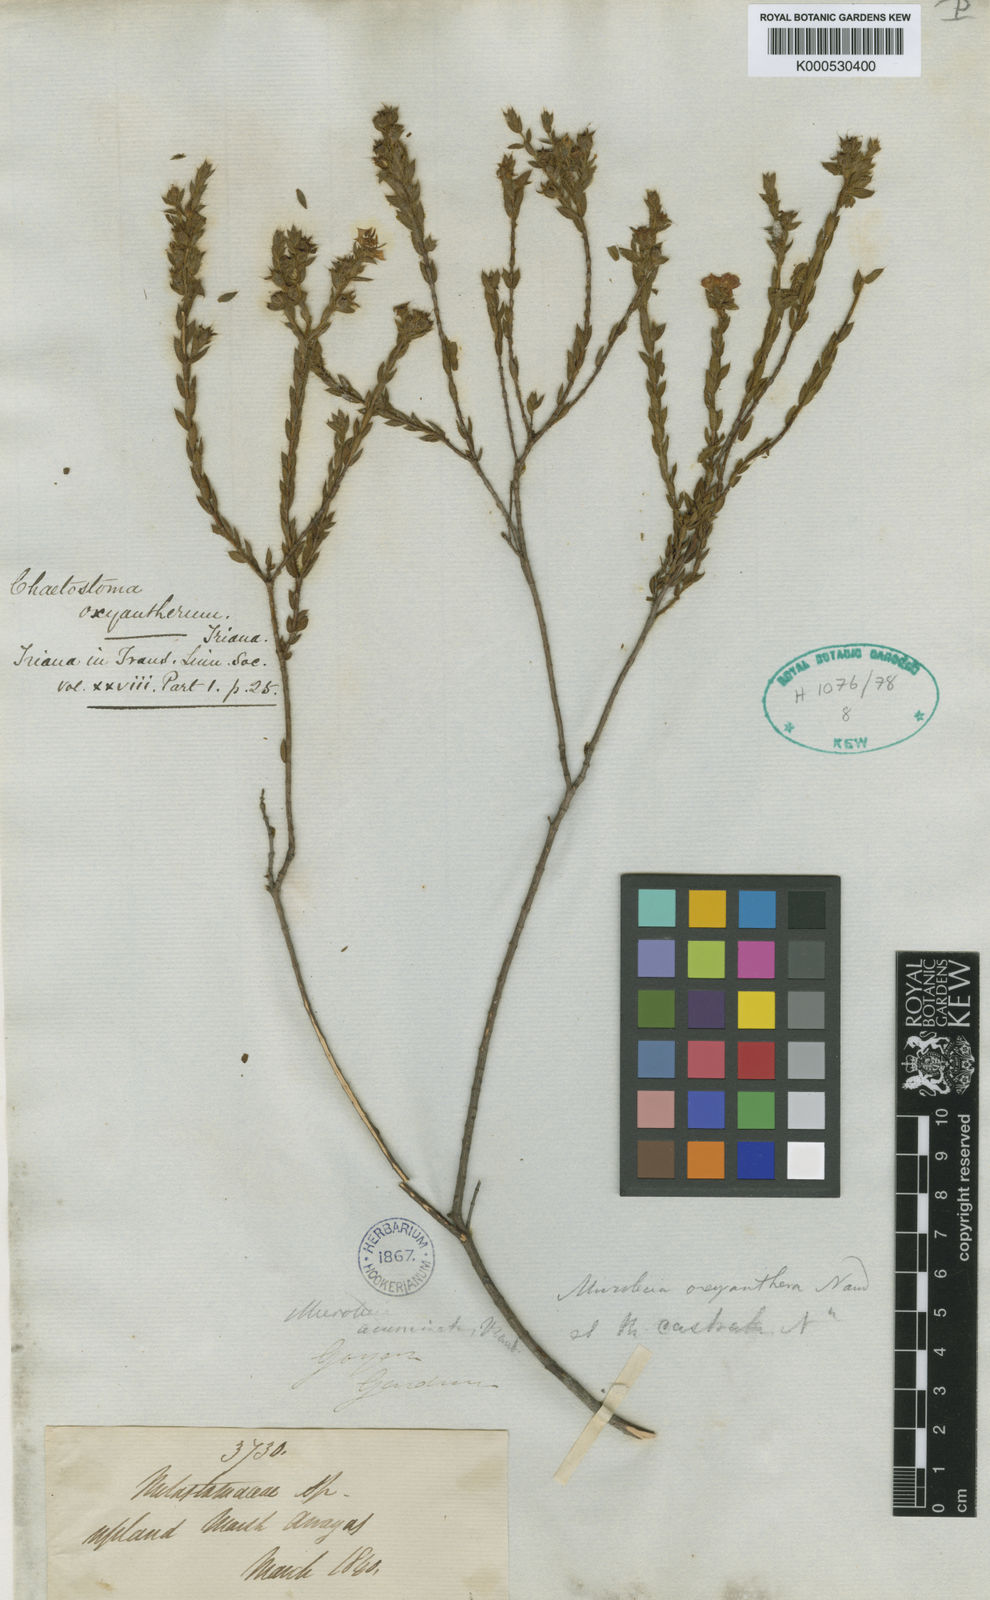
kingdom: Plantae
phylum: Tracheophyta
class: Magnoliopsida
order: Myrtales
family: Melastomataceae
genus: Microlicia
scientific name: Microlicia
